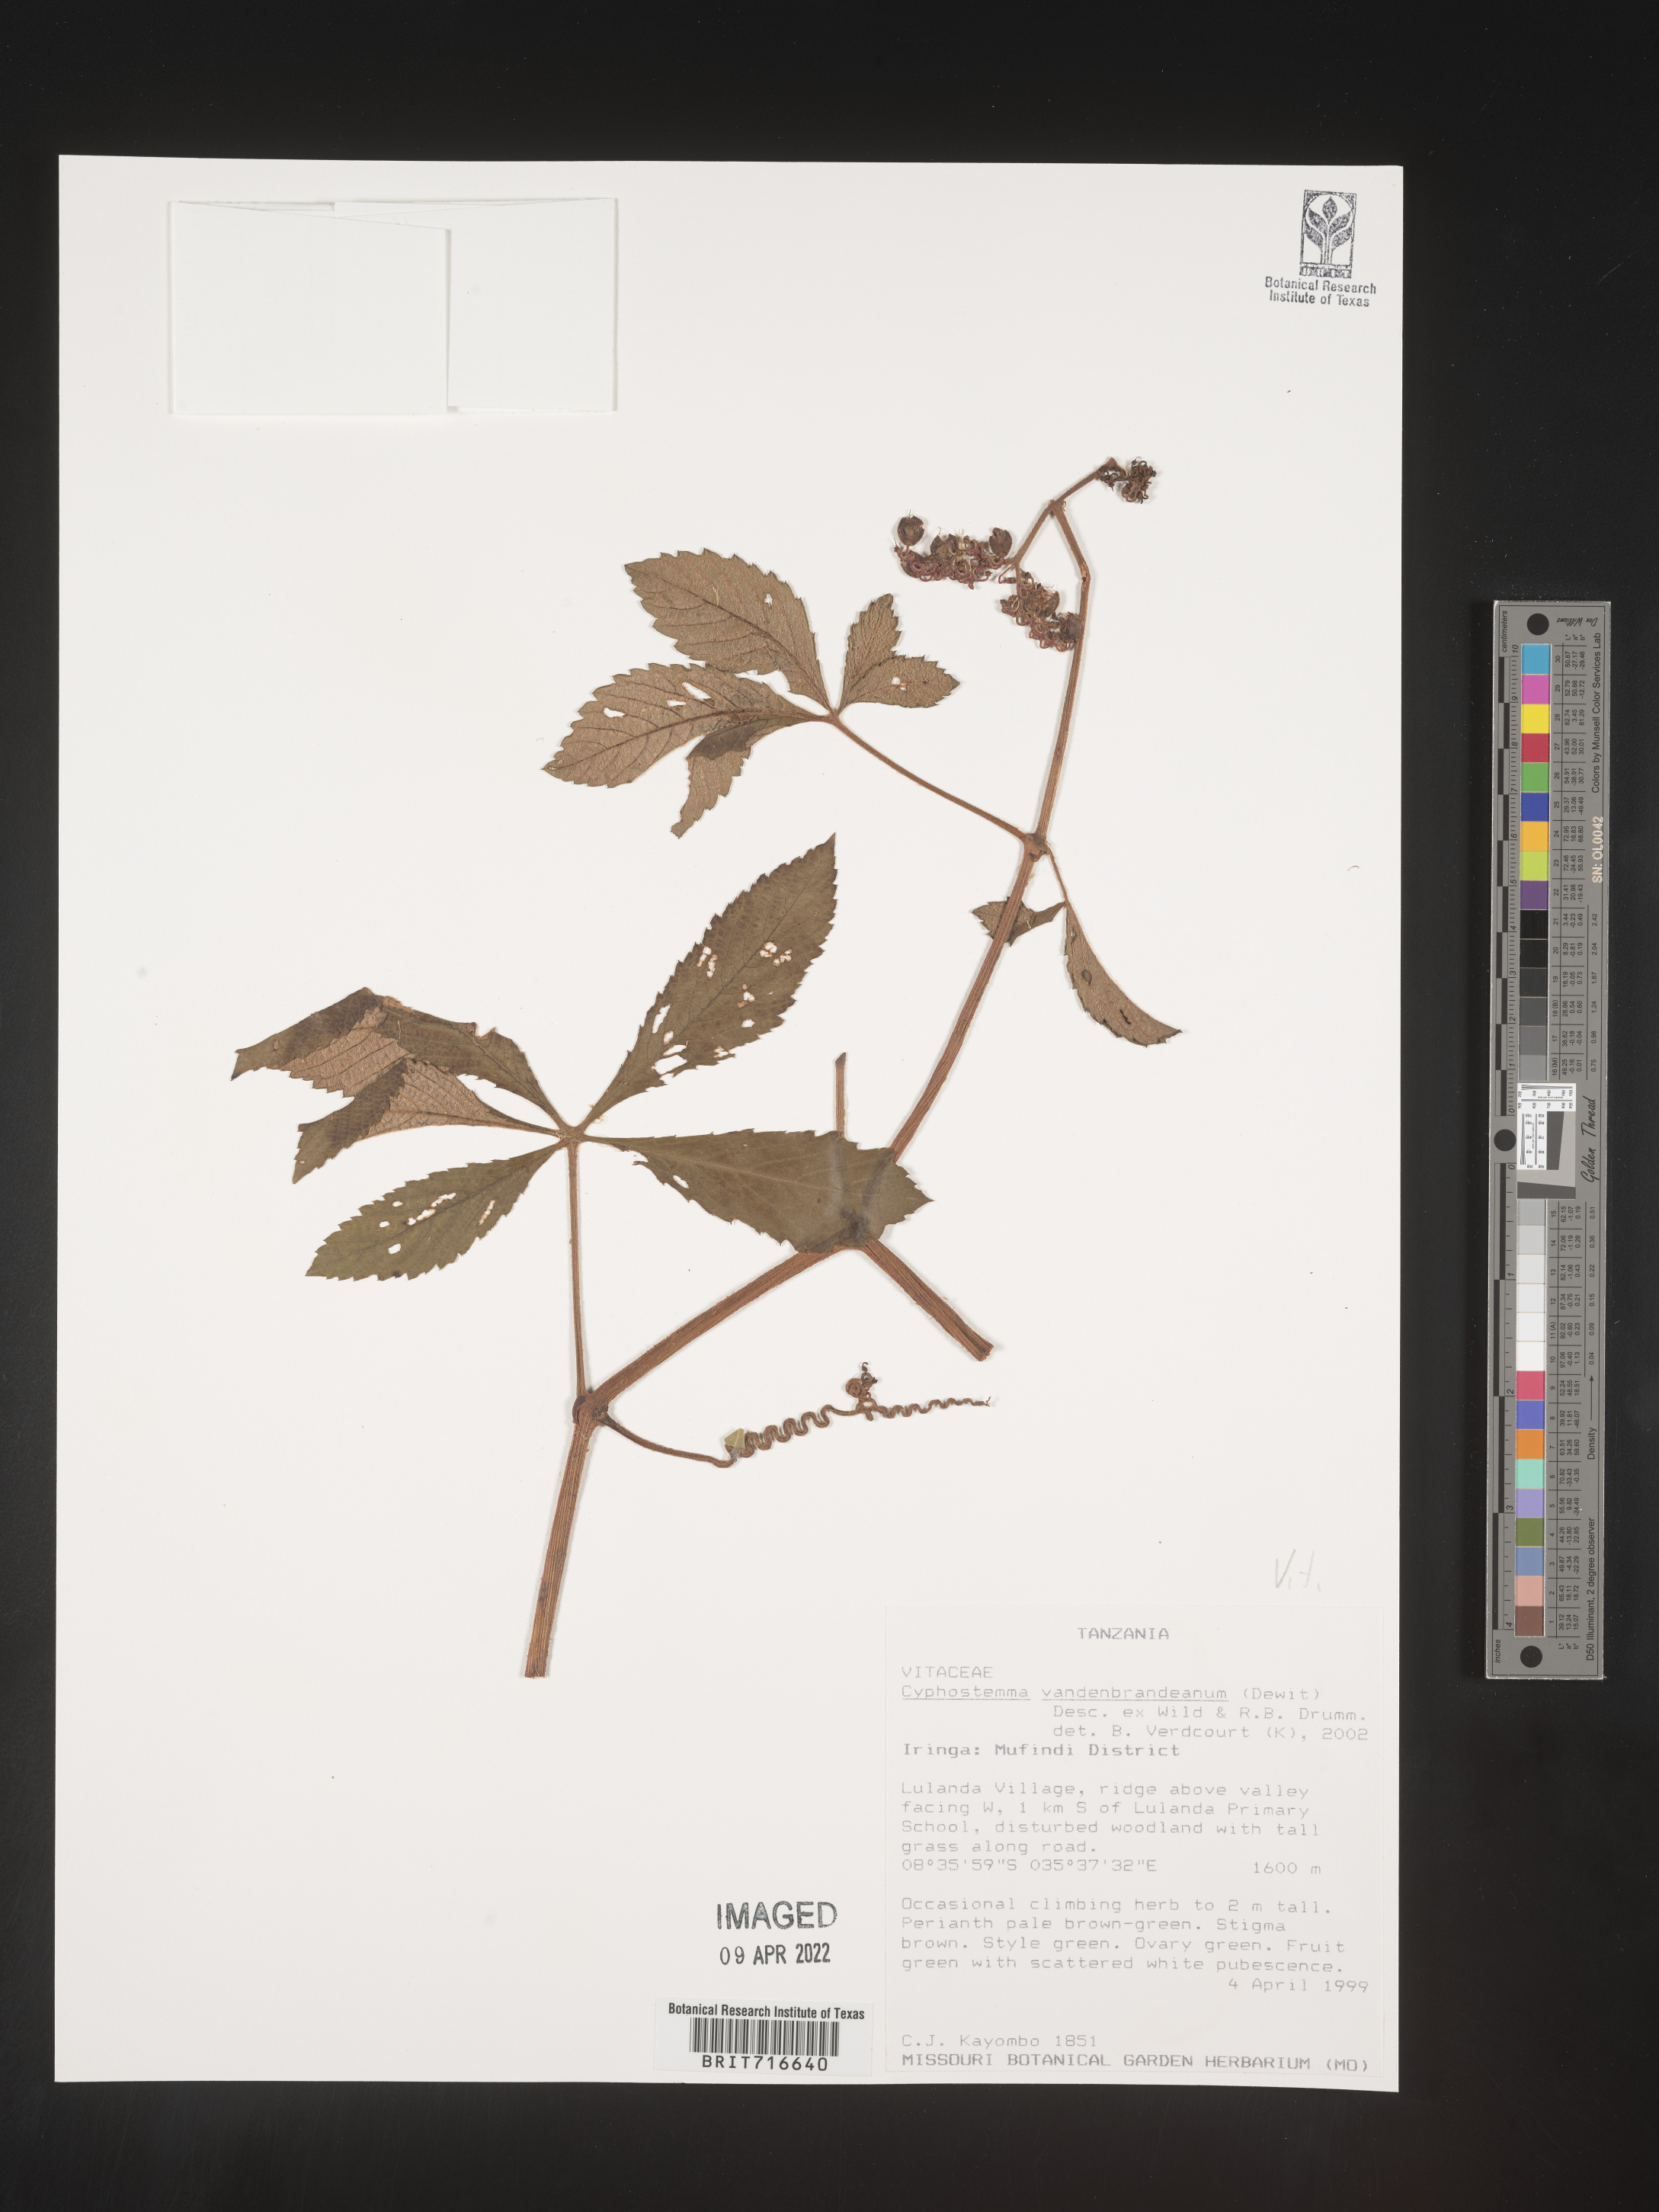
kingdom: Plantae
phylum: Tracheophyta
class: Magnoliopsida
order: Vitales
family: Vitaceae
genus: Cyphostemma
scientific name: Cyphostemma
